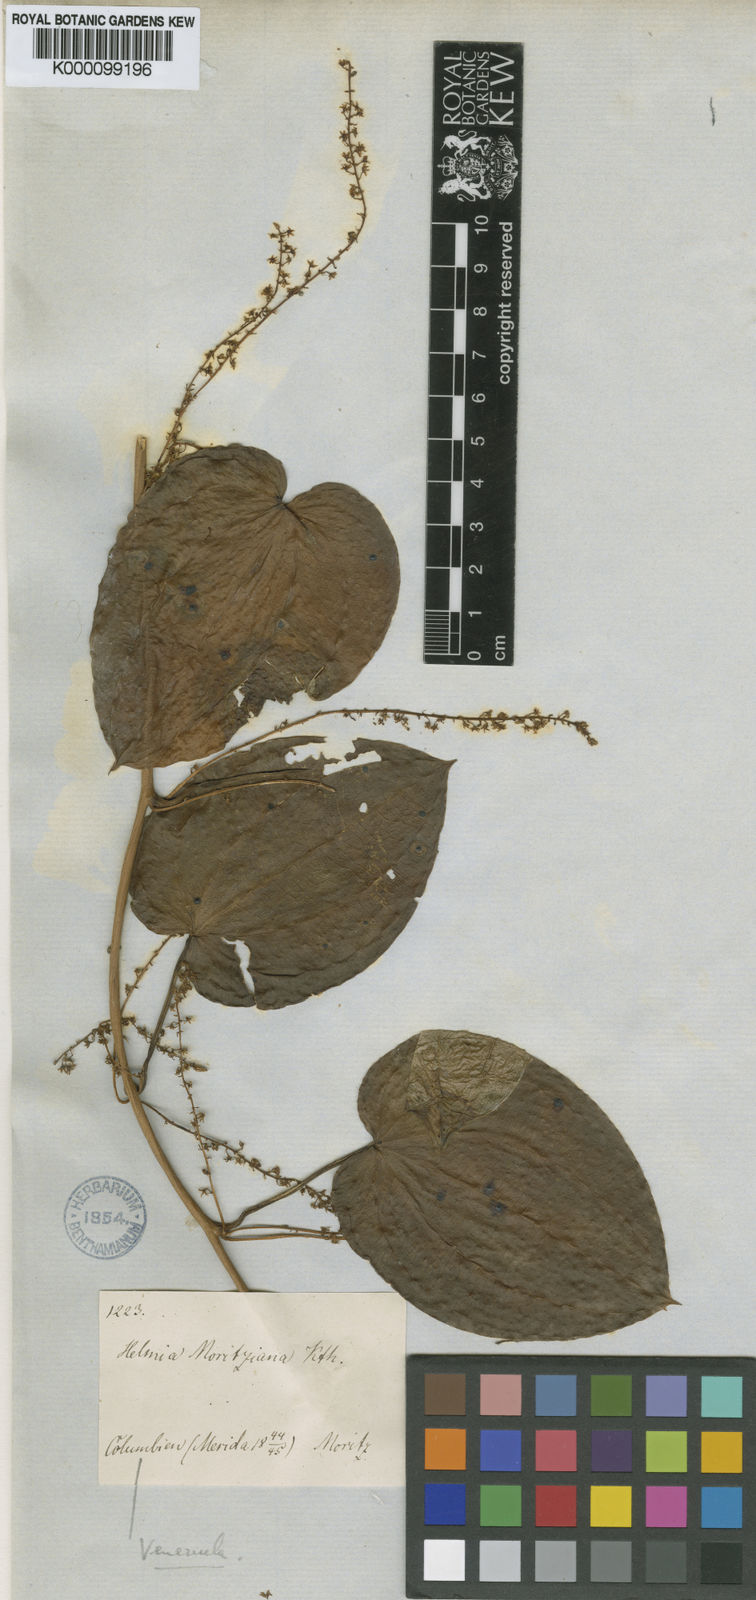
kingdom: Plantae
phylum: Tracheophyta
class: Liliopsida
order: Dioscoreales
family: Dioscoreaceae
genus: Dioscorea
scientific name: Dioscorea moritziana
